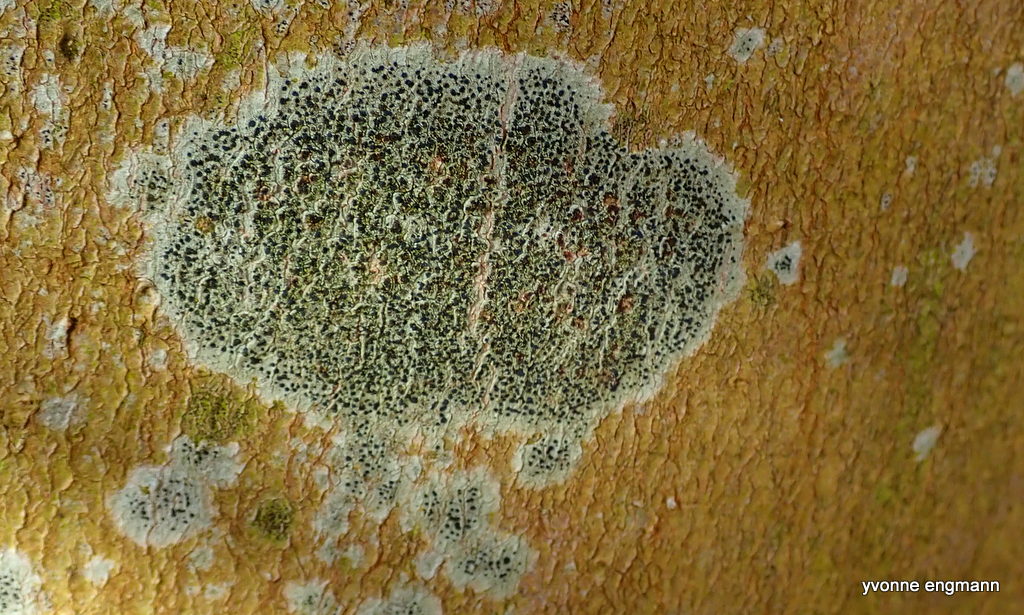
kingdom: Fungi
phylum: Ascomycota
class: Lecanoromycetes
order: Lecanorales
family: Lecanoraceae
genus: Lecidella
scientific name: Lecidella elaeochroma
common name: grågrøn skivelav
